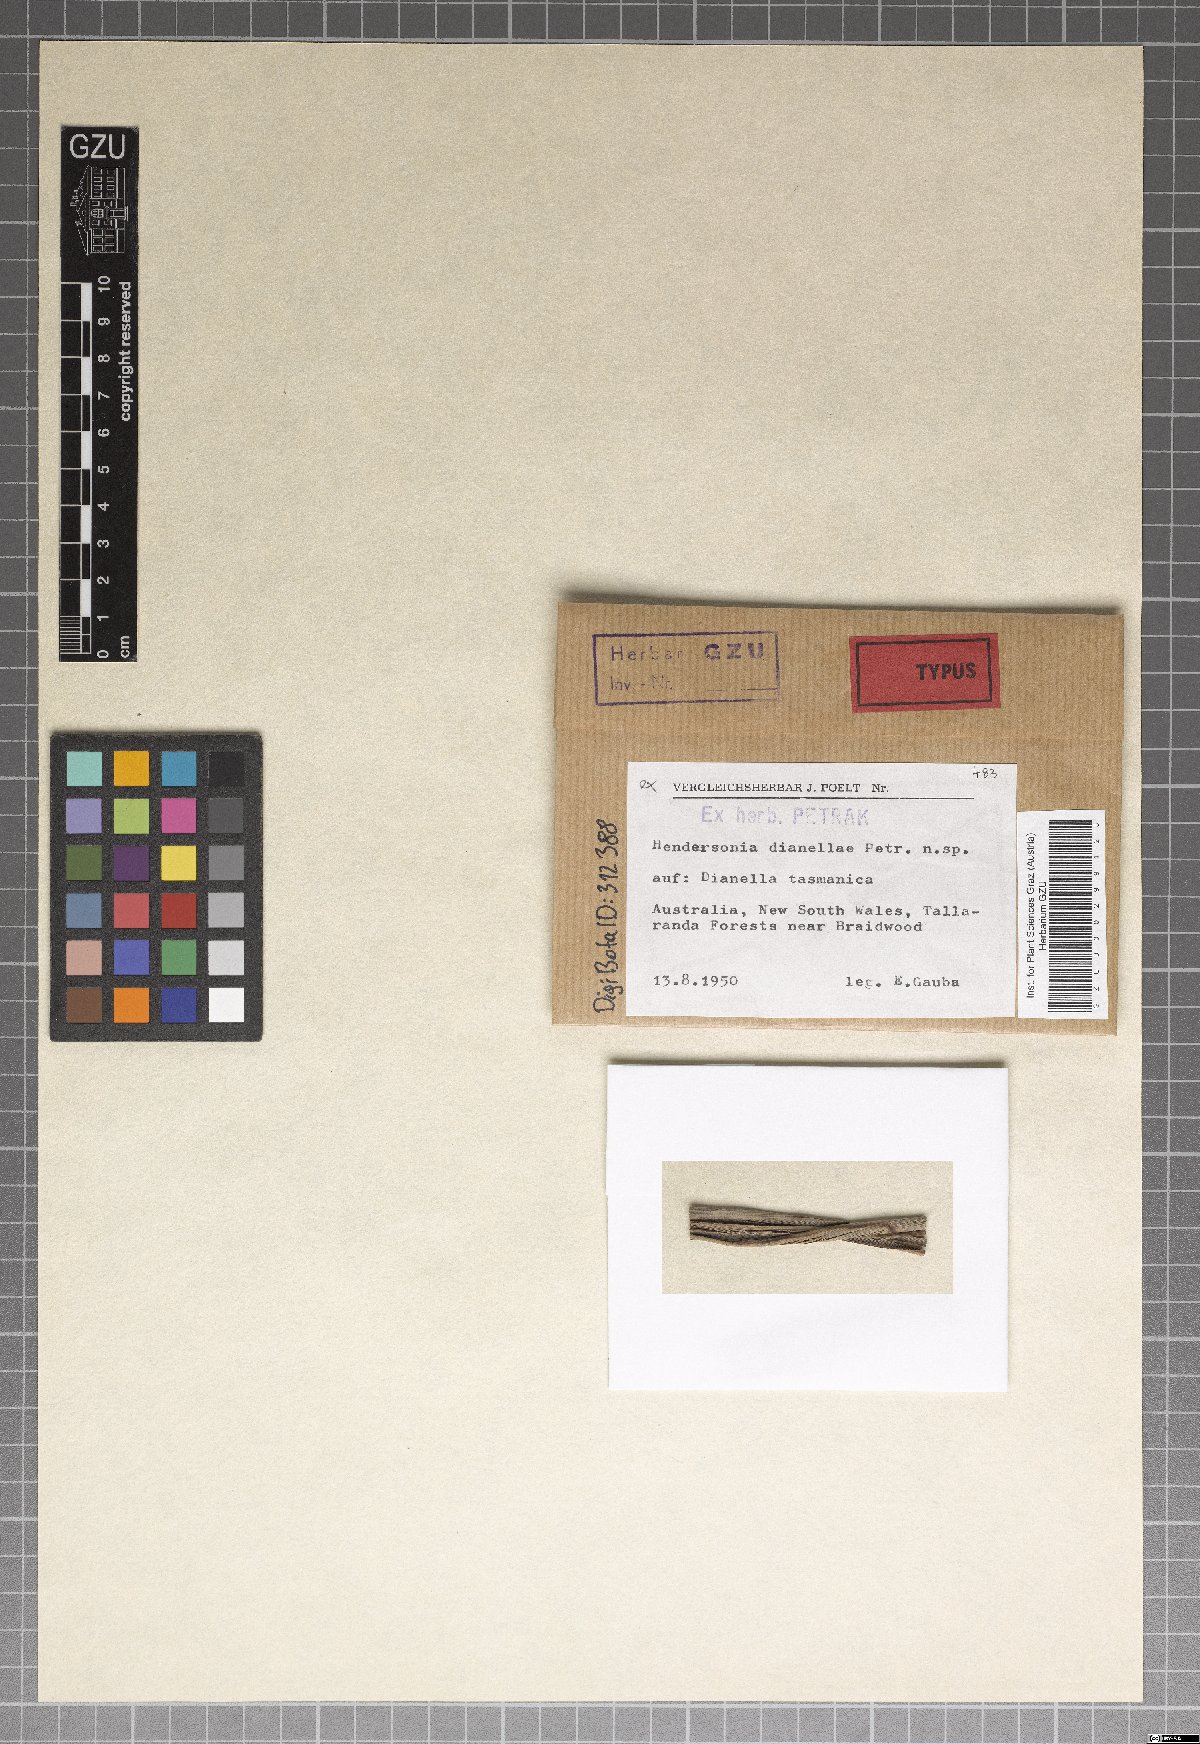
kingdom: Fungi
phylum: Ascomycota
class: Dothideomycetes
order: Pleosporales
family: Phaeosphaeriaceae
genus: Hendersonia
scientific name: Hendersonia dianellae
